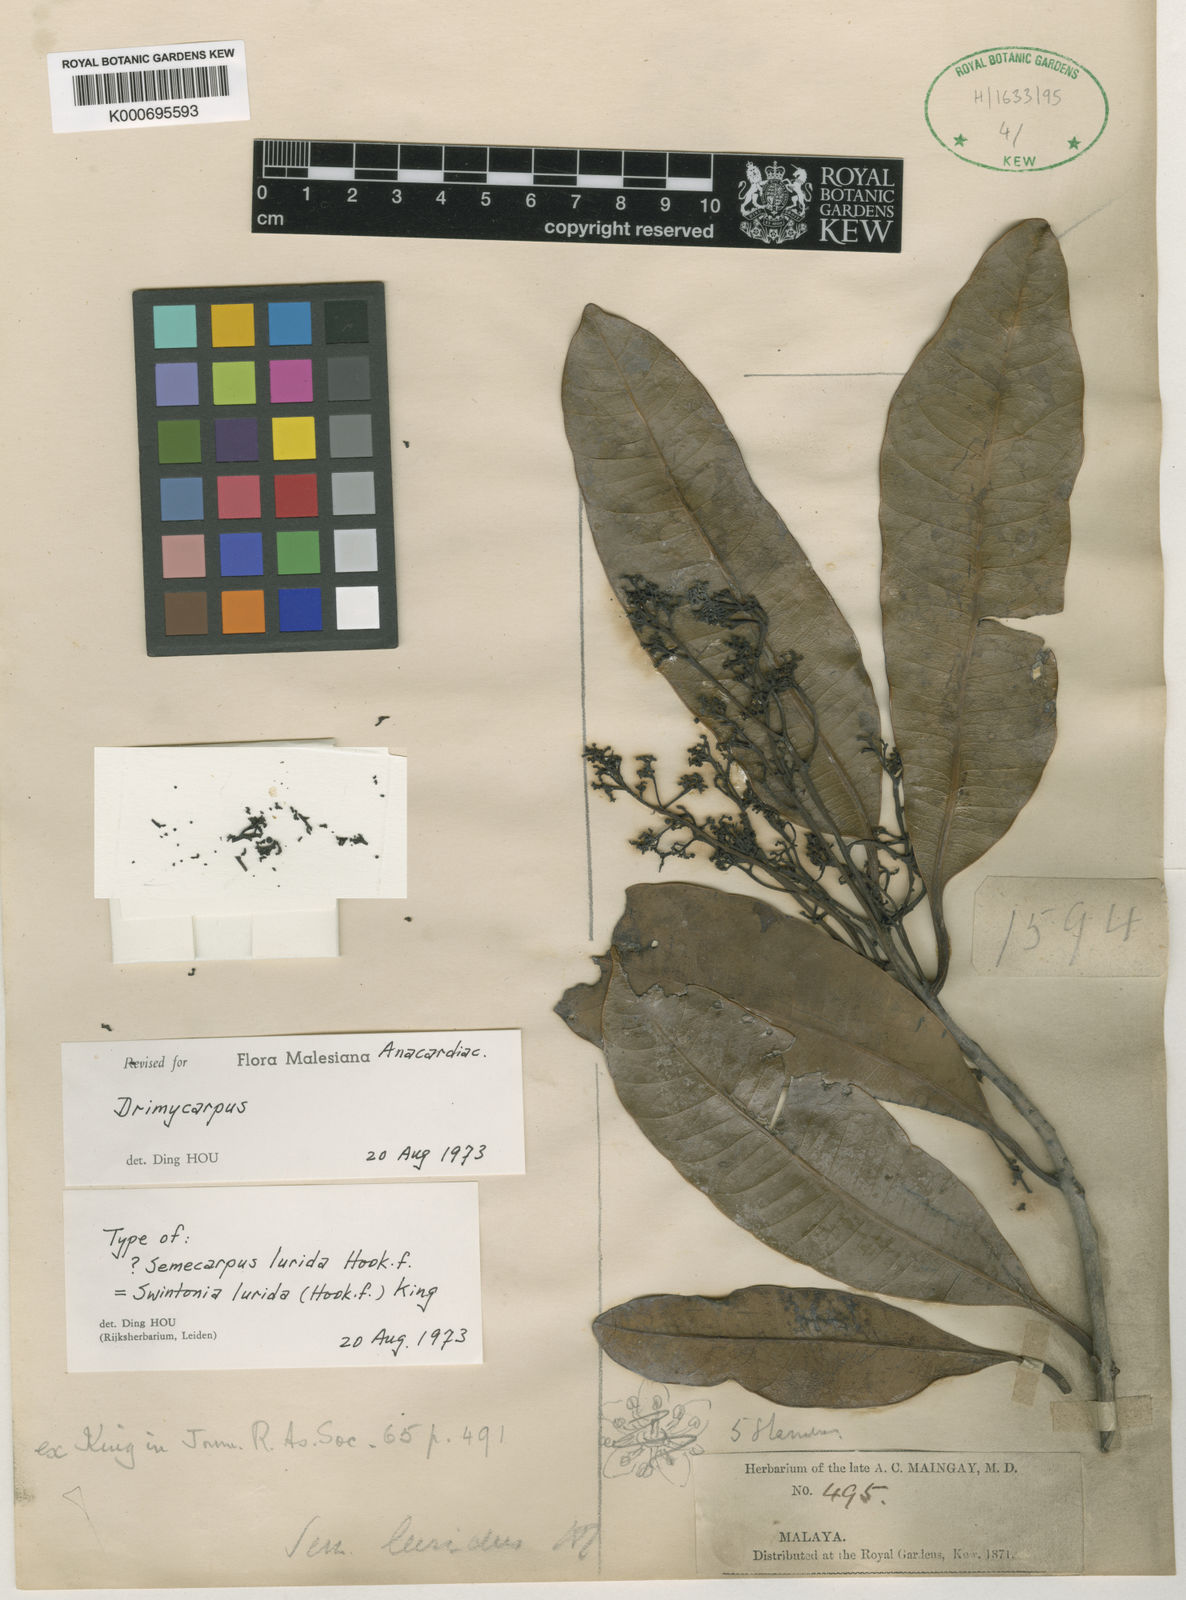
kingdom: Plantae
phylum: Tracheophyta
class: Magnoliopsida
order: Sapindales
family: Anacardiaceae
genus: Drimycarpus
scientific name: Drimycarpus racemosus
